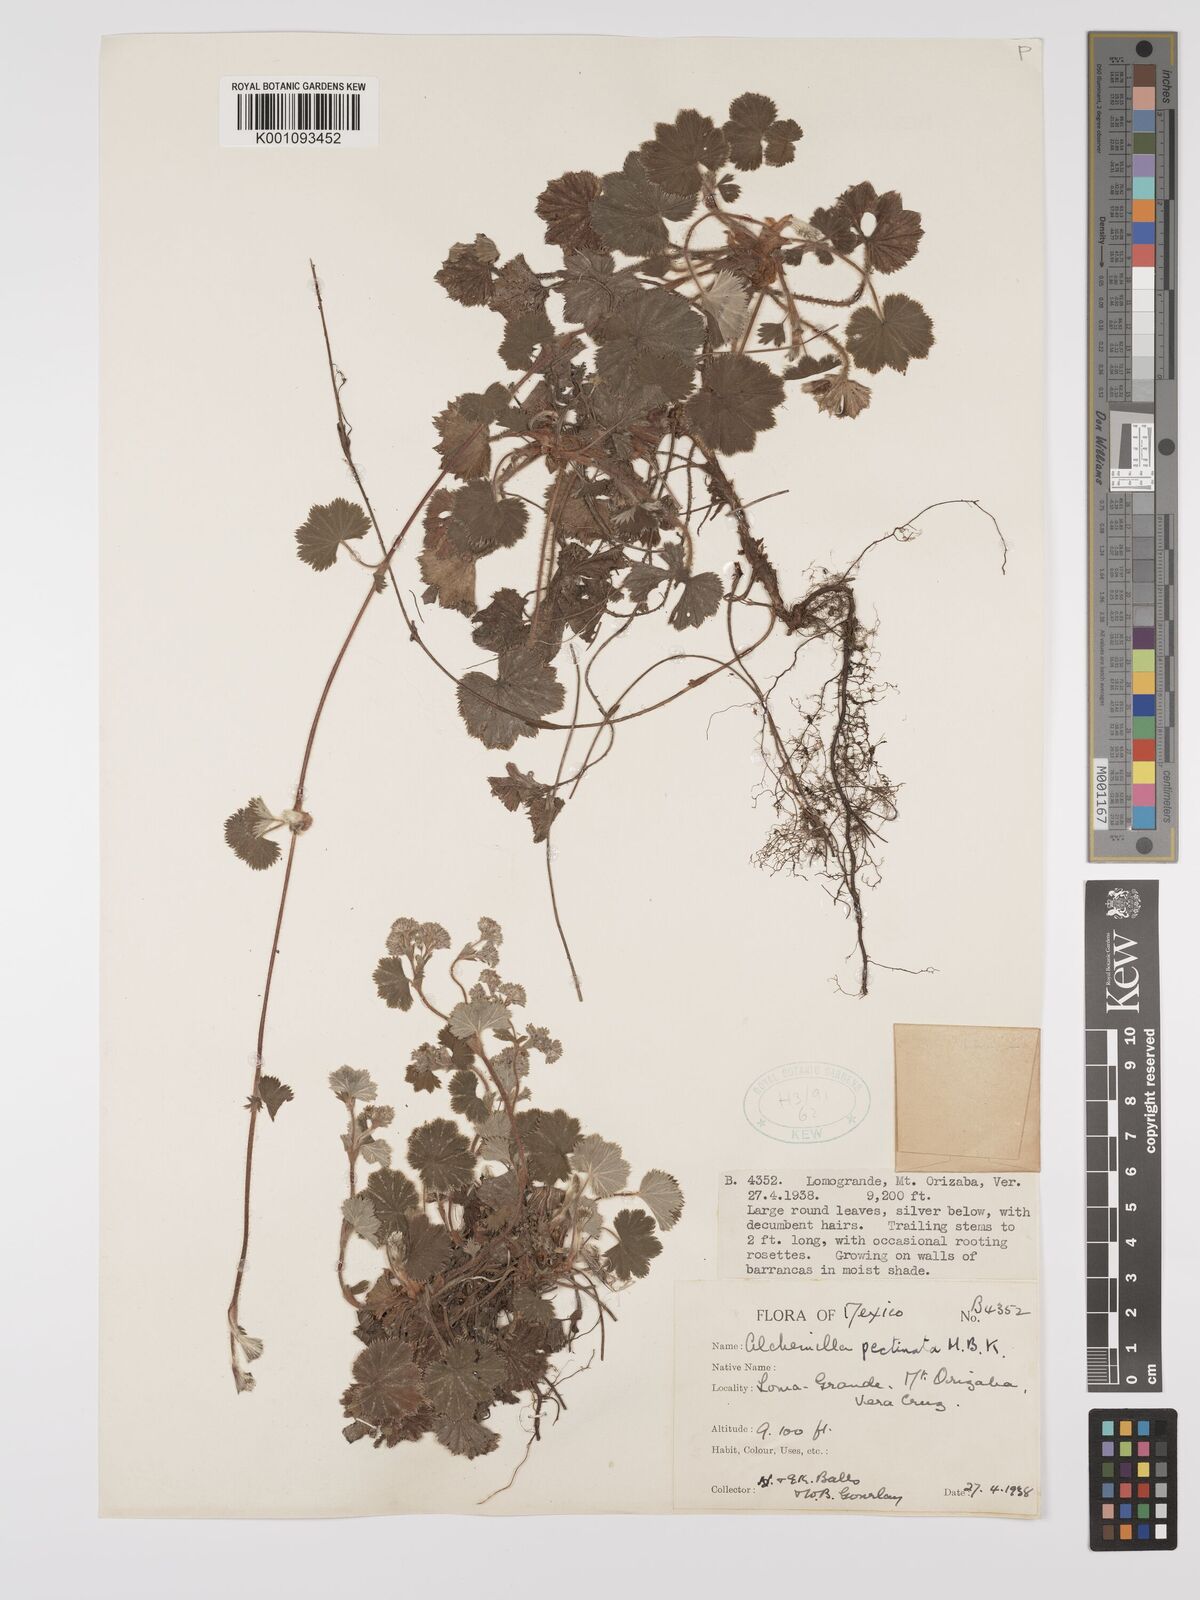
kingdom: Plantae
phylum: Tracheophyta
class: Magnoliopsida
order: Rosales
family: Rosaceae
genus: Lachemilla
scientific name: Lachemilla pectinata
